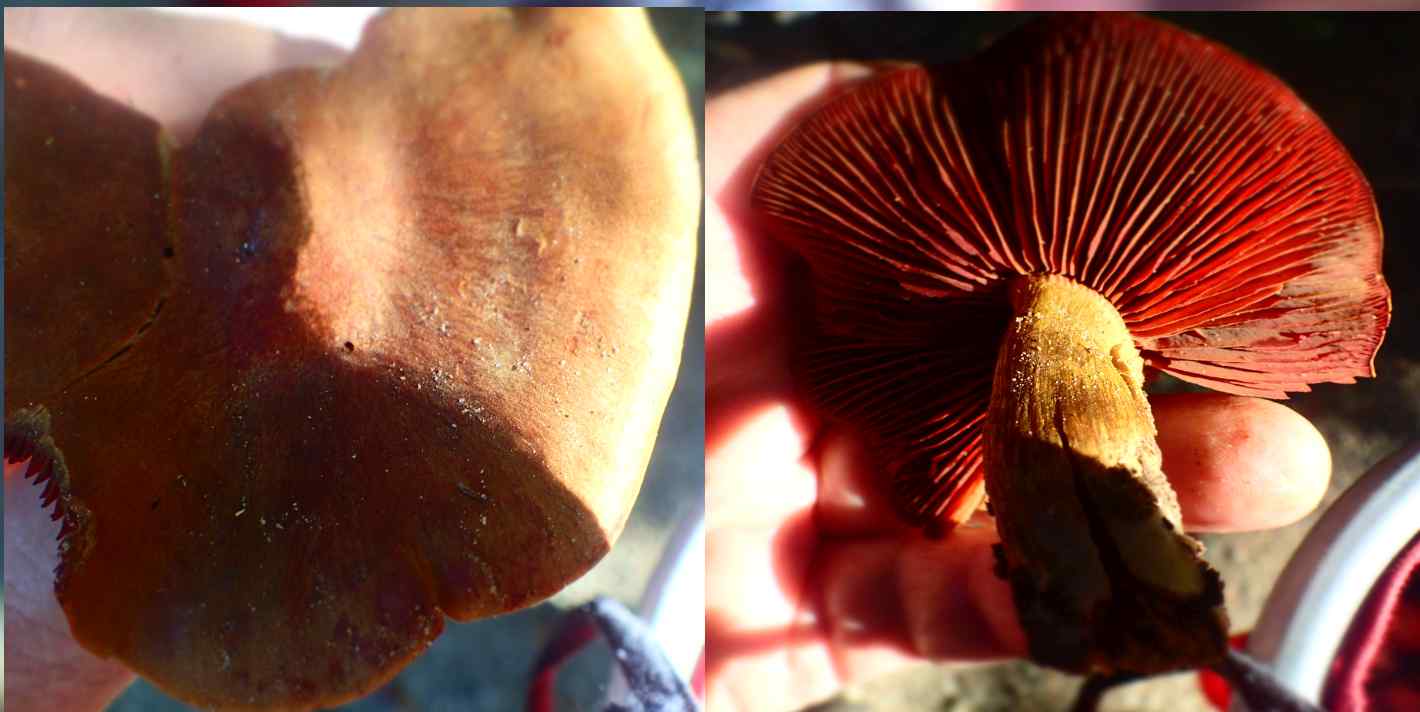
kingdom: Fungi
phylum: Basidiomycota
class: Agaricomycetes
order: Agaricales
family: Cortinariaceae
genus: Cortinarius
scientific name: Cortinarius
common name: cinnoberbladet slørhat
